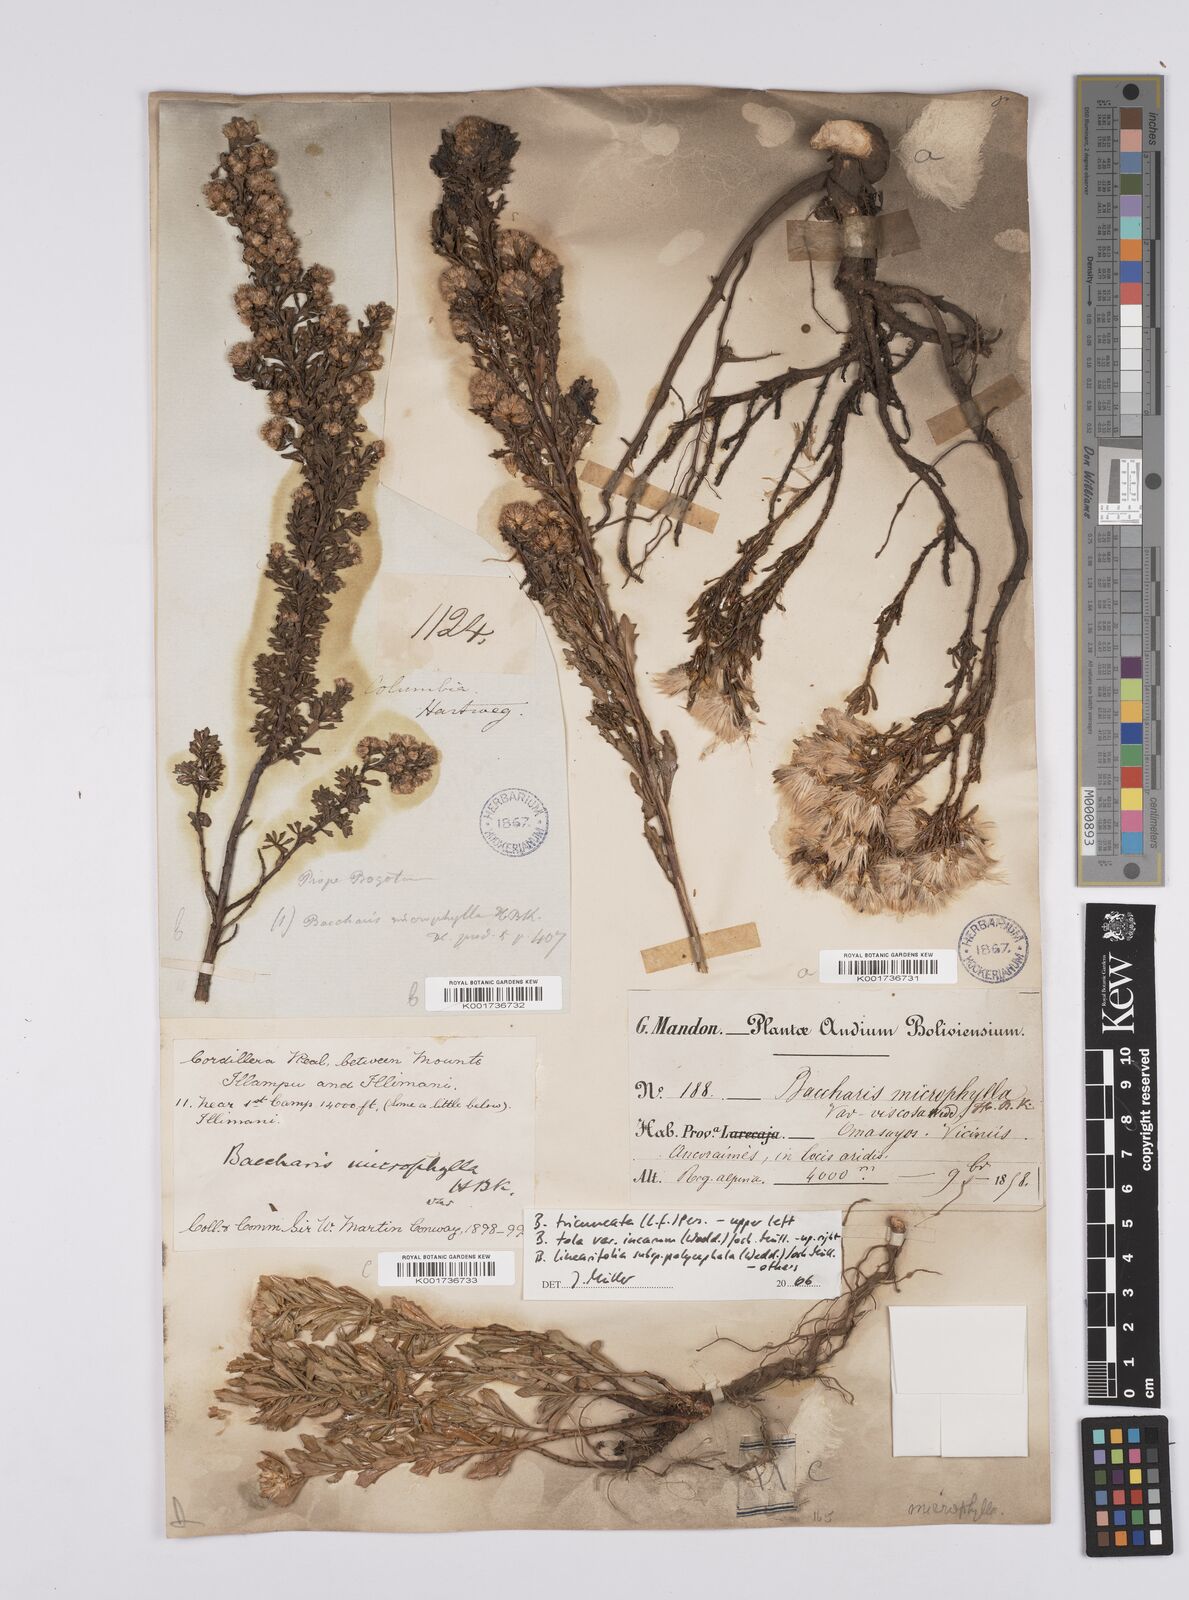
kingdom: Plantae
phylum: Tracheophyta
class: Magnoliopsida
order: Asterales
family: Asteraceae
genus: Baccharis
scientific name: Baccharis tricuneata
